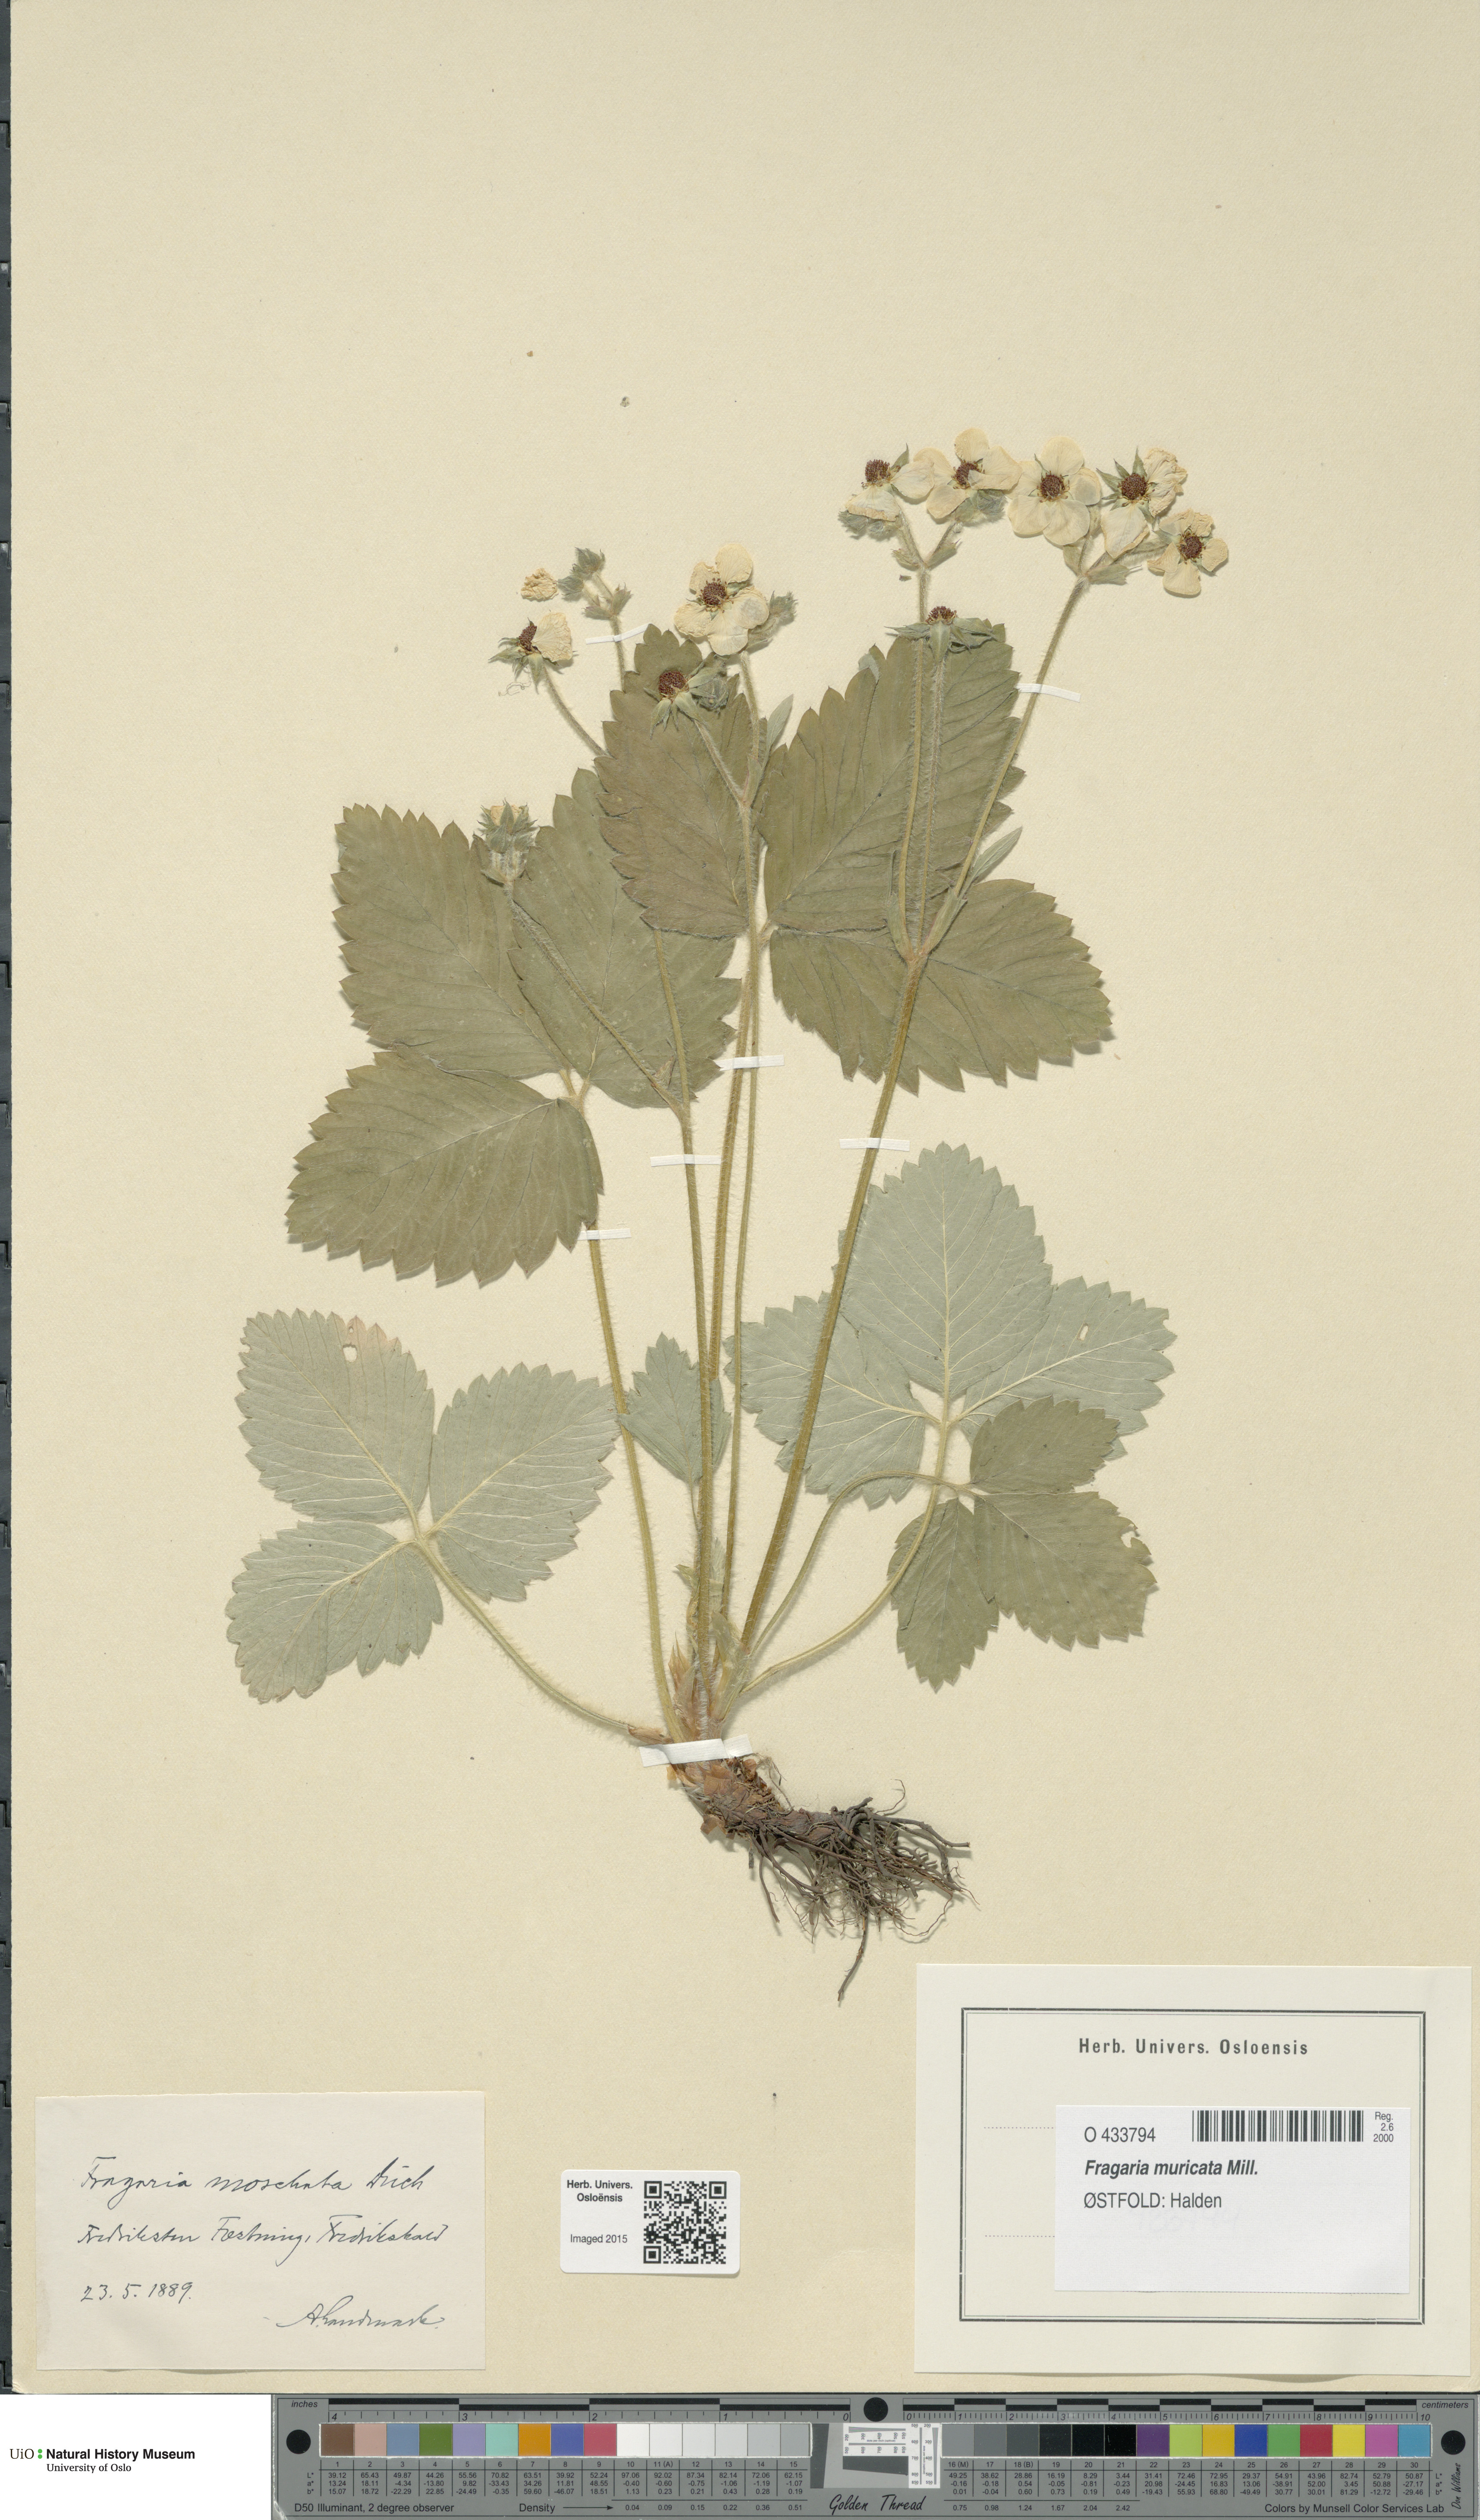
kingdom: Plantae
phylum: Tracheophyta
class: Magnoliopsida
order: Rosales
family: Rosaceae
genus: Fragaria
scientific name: Fragaria moschata
